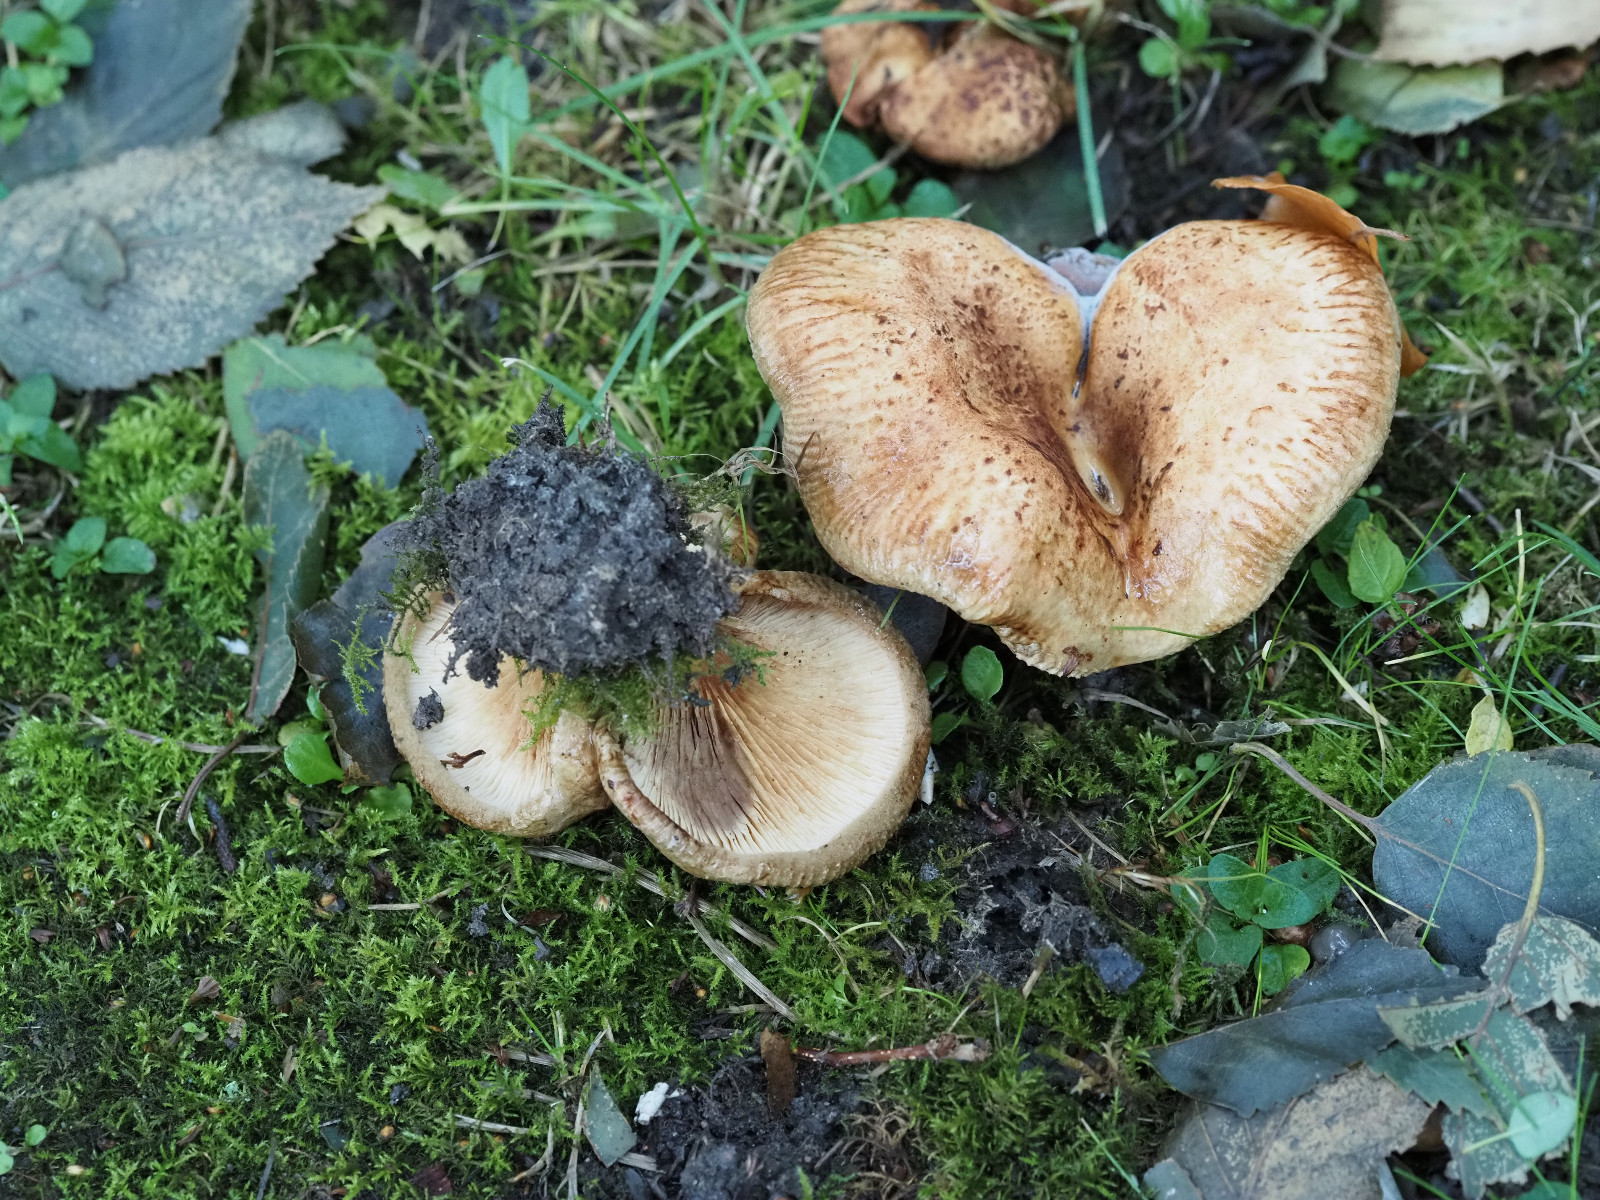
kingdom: Fungi
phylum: Basidiomycota
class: Agaricomycetes
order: Boletales
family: Paxillaceae
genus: Paxillus
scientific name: Paxillus obscurisporus
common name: mahognisporet netbladhat
